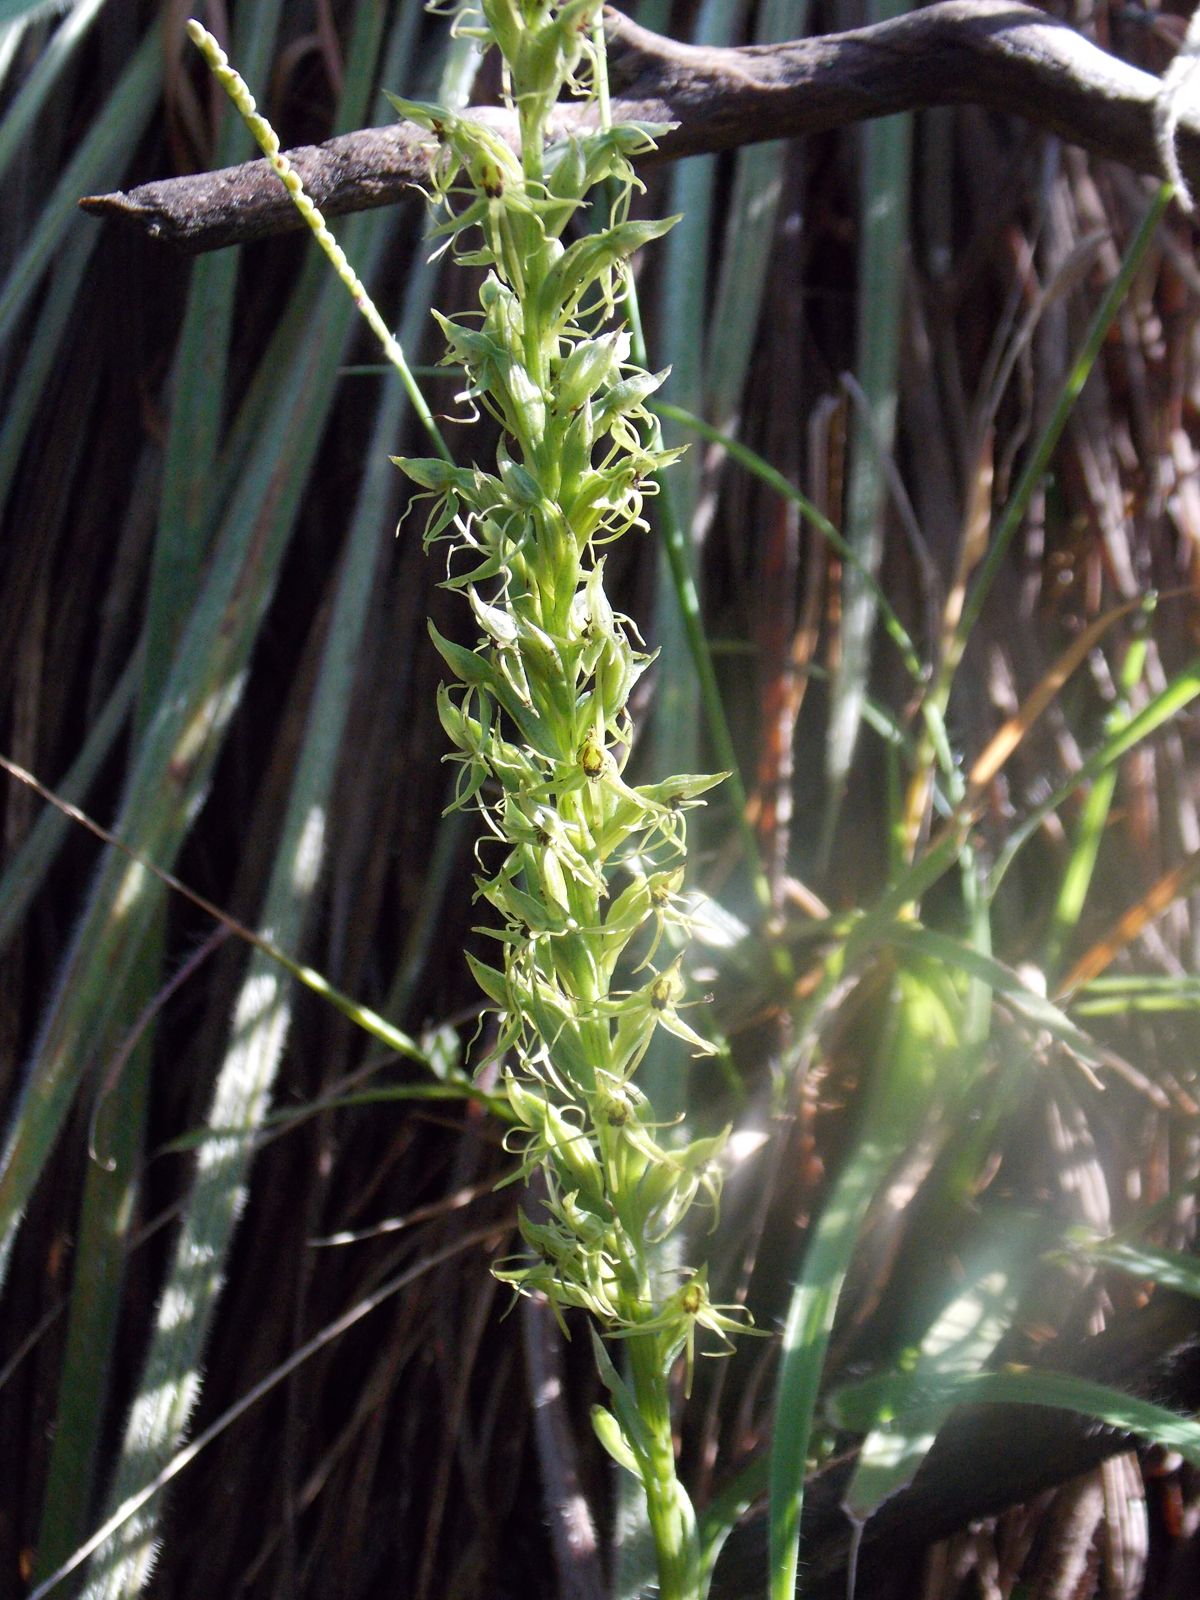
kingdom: Plantae
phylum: Tracheophyta
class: Liliopsida
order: Asparagales
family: Orchidaceae
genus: Habenaria
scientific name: Habenaria wercklei
